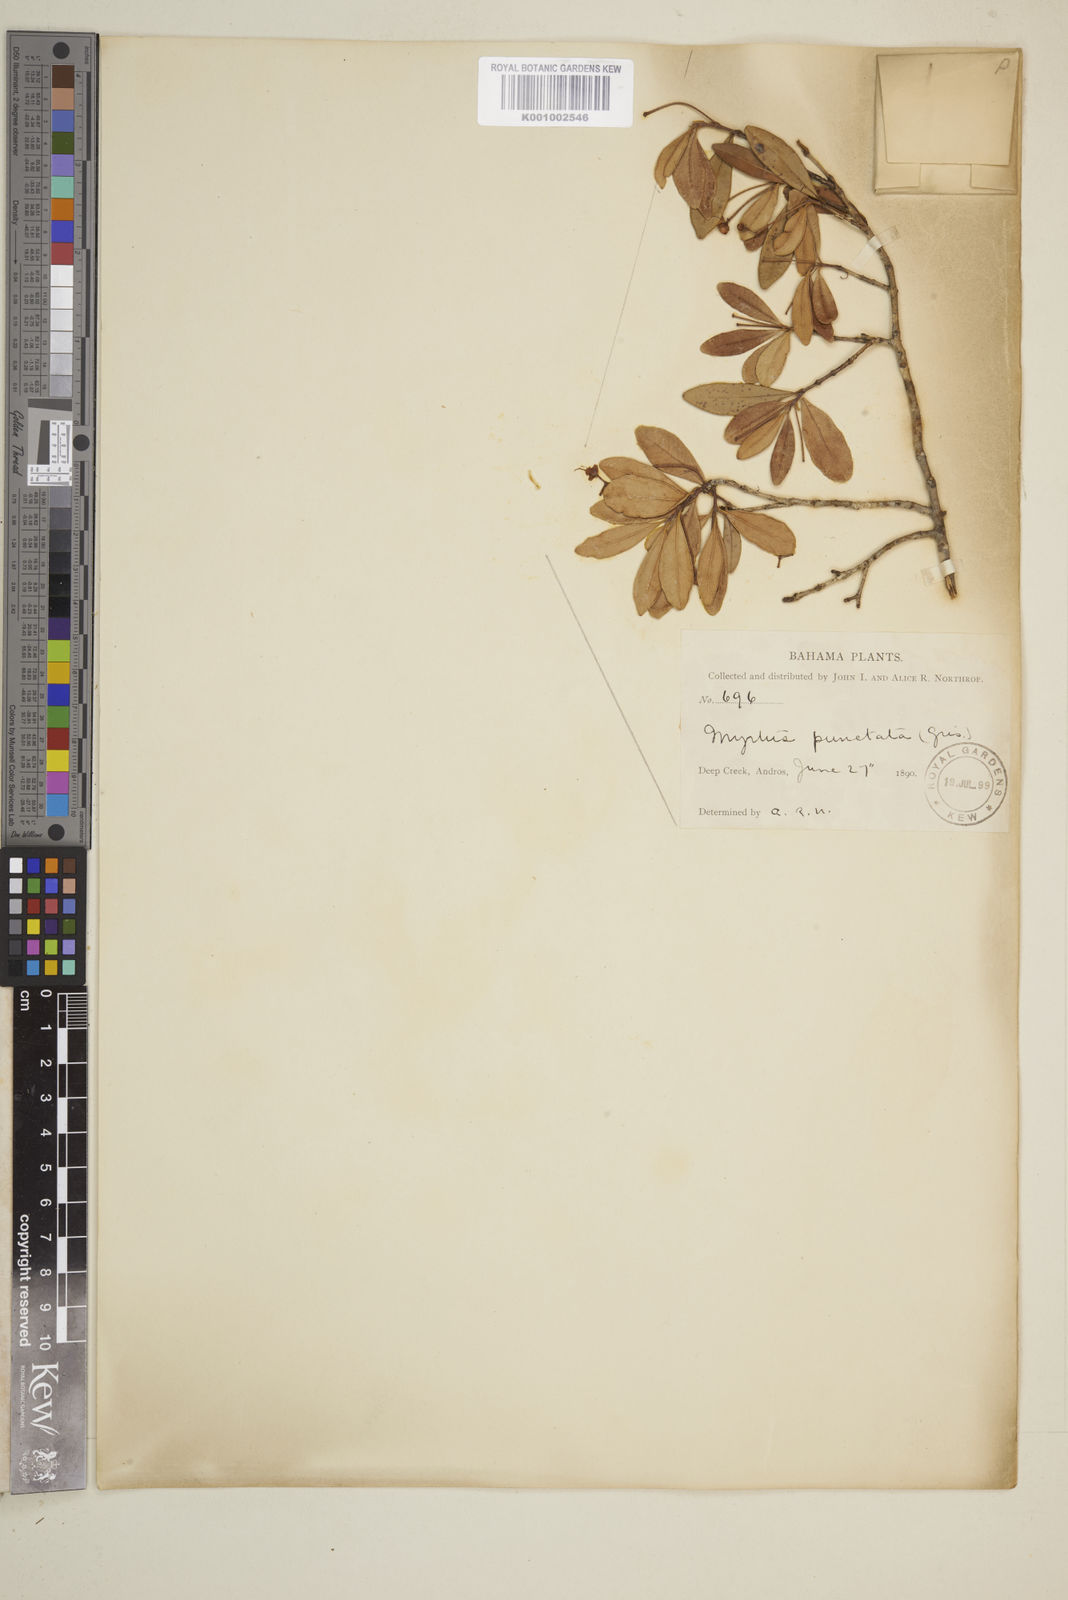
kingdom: Plantae
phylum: Tracheophyta
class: Magnoliopsida
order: Myrtales
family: Myrtaceae
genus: Myrcianthes
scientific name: Myrcianthes fragrans
